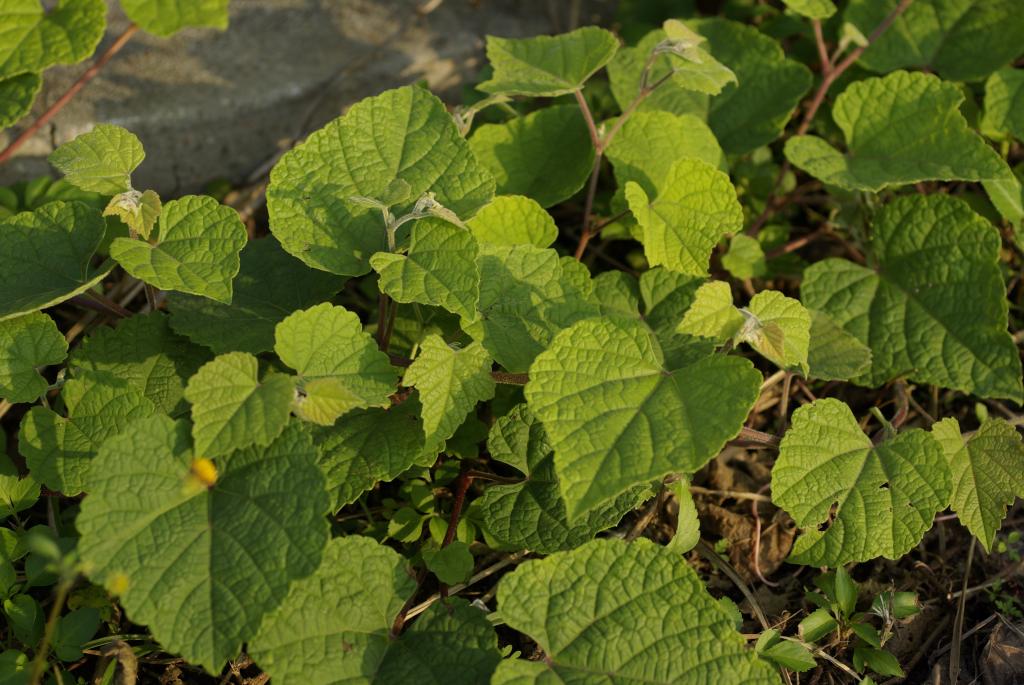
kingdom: Plantae
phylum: Tracheophyta
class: Magnoliopsida
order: Vitales
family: Vitaceae
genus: Ampelopsis
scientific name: Ampelopsis glandulosa
